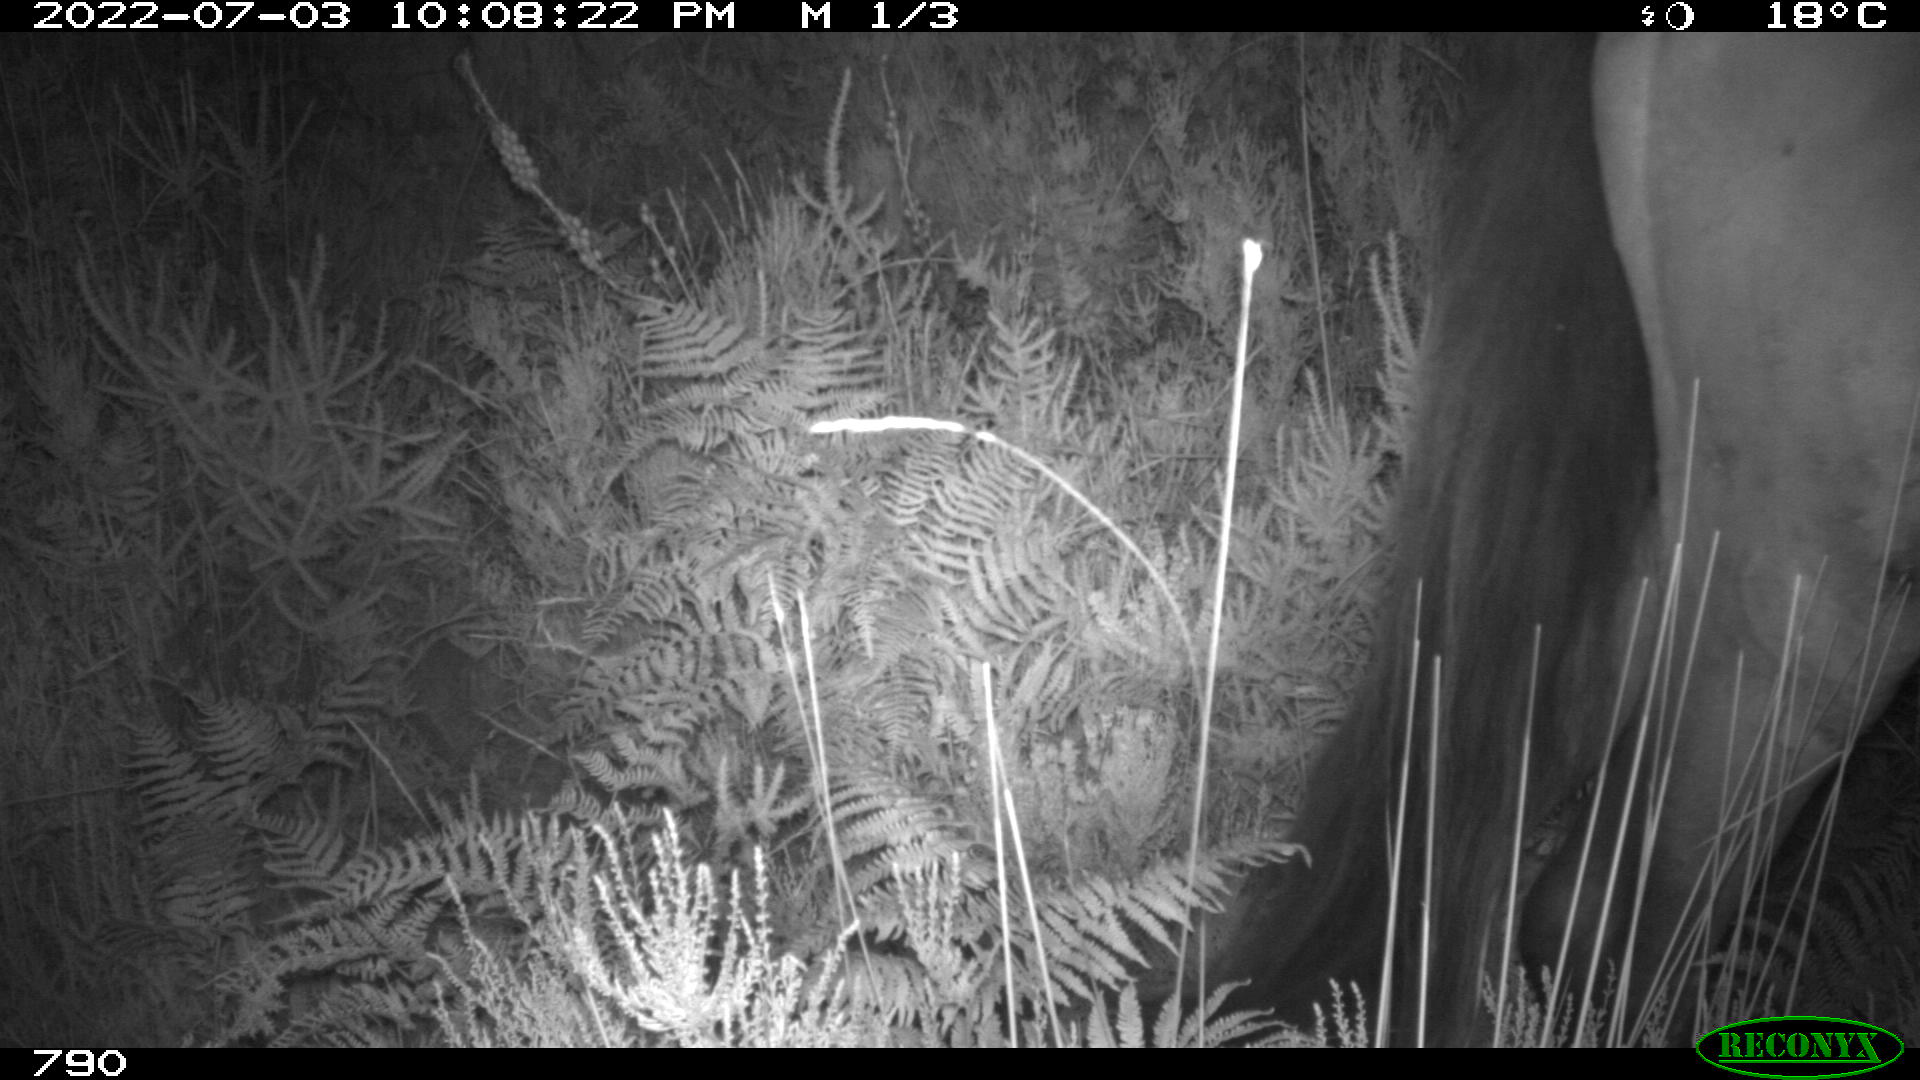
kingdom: Animalia
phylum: Chordata
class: Mammalia
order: Perissodactyla
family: Equidae
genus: Equus
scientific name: Equus caballus
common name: Horse
